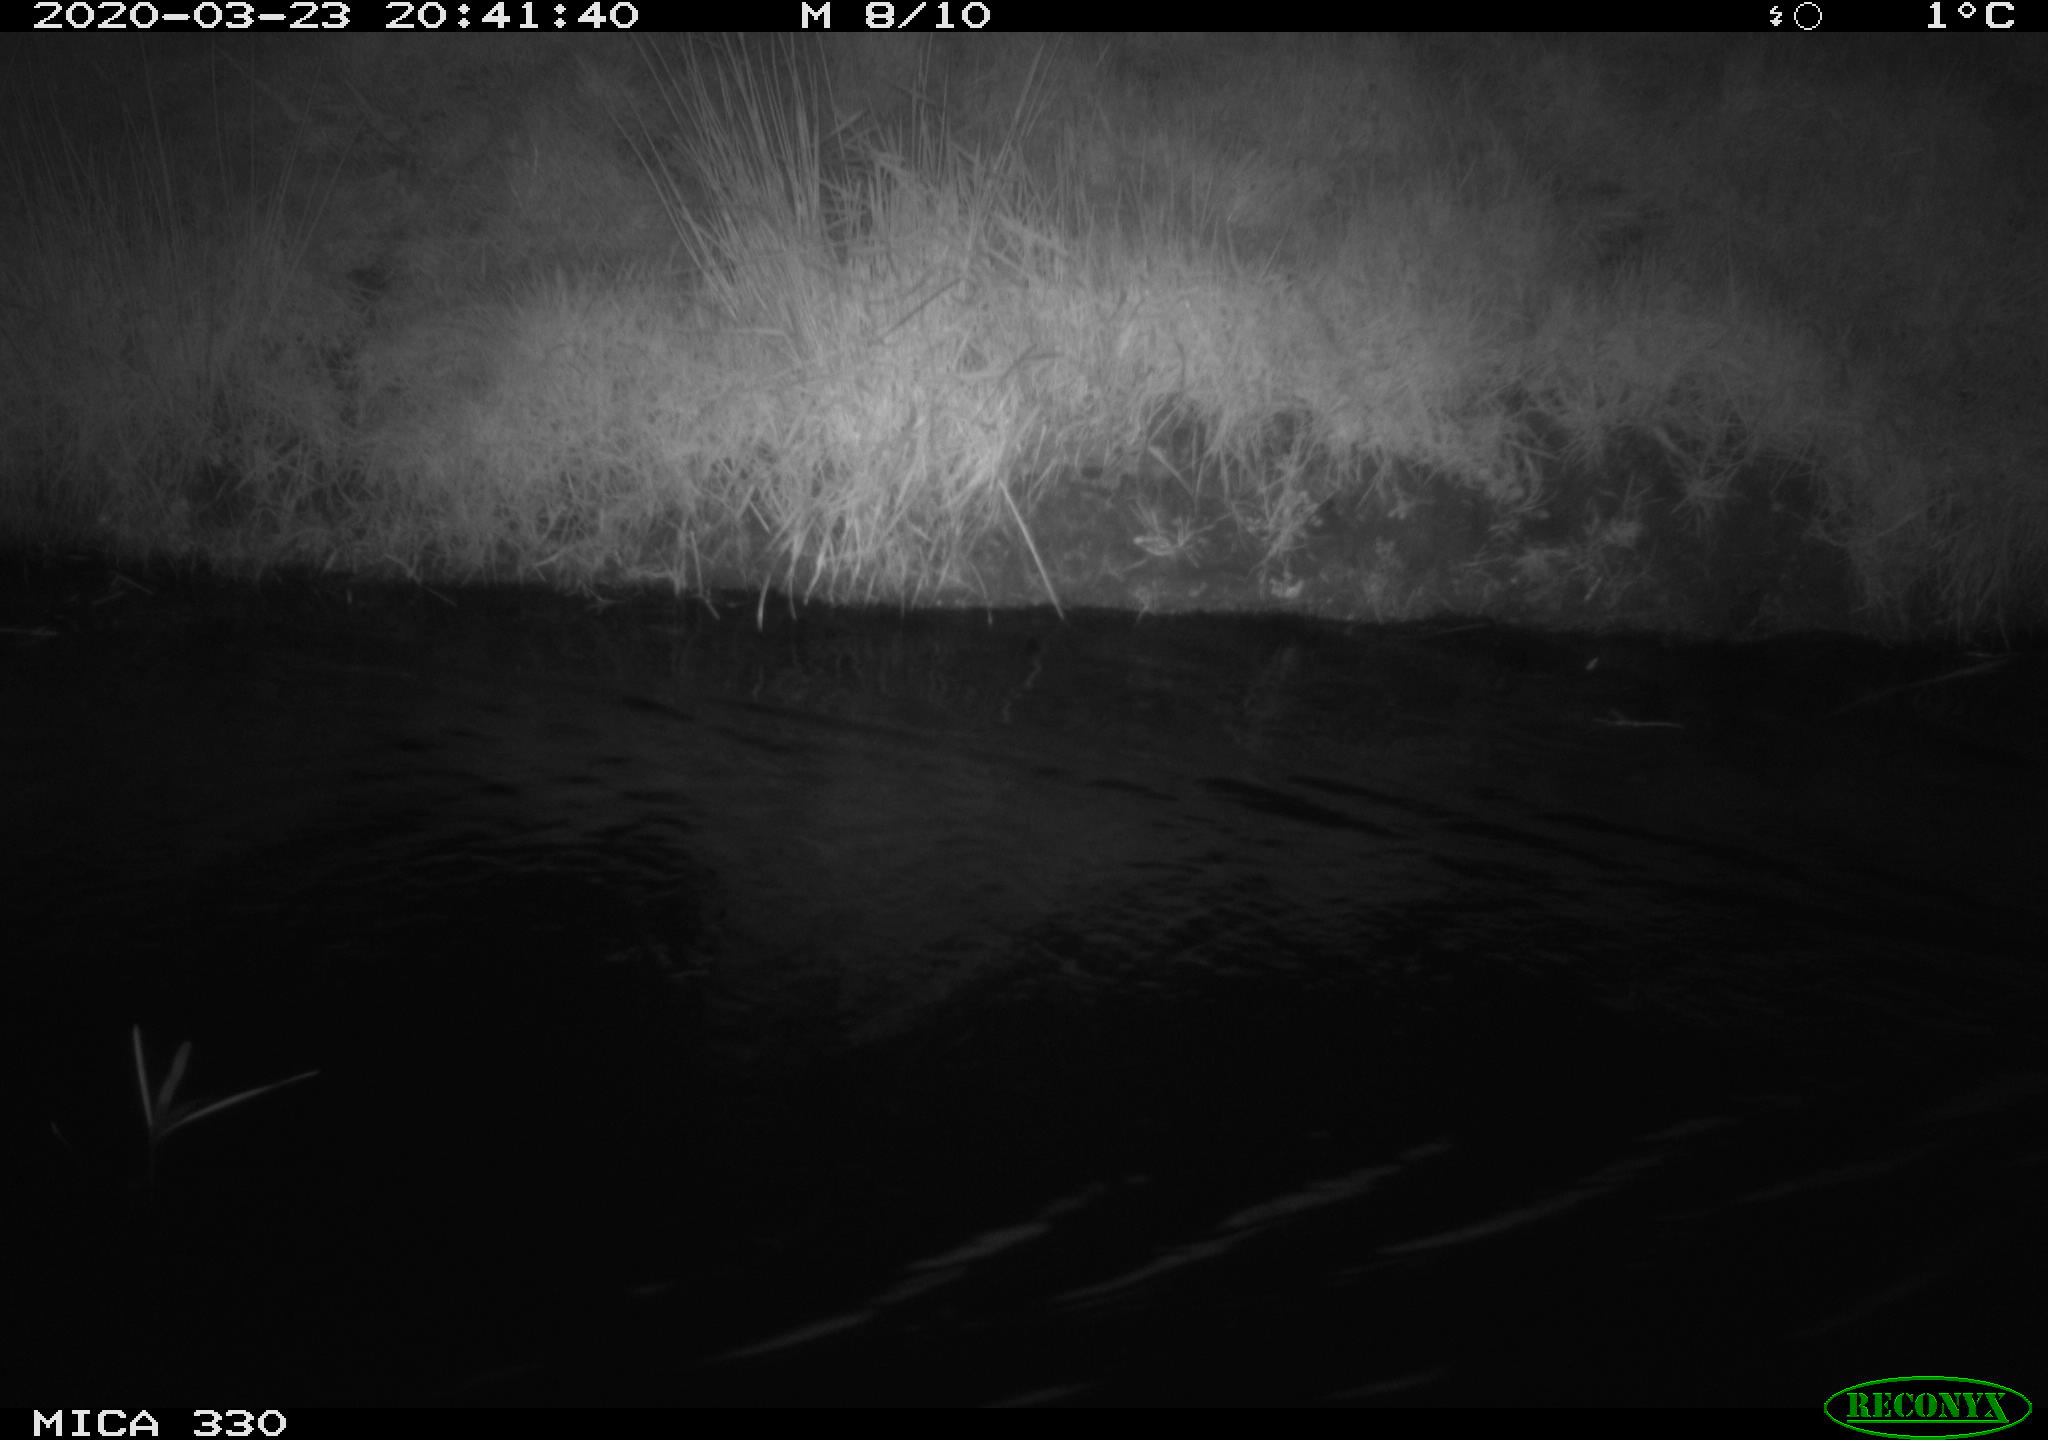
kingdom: Animalia
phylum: Chordata
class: Aves
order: Anseriformes
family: Anatidae
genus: Anas
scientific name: Anas platyrhynchos
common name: Mallard
